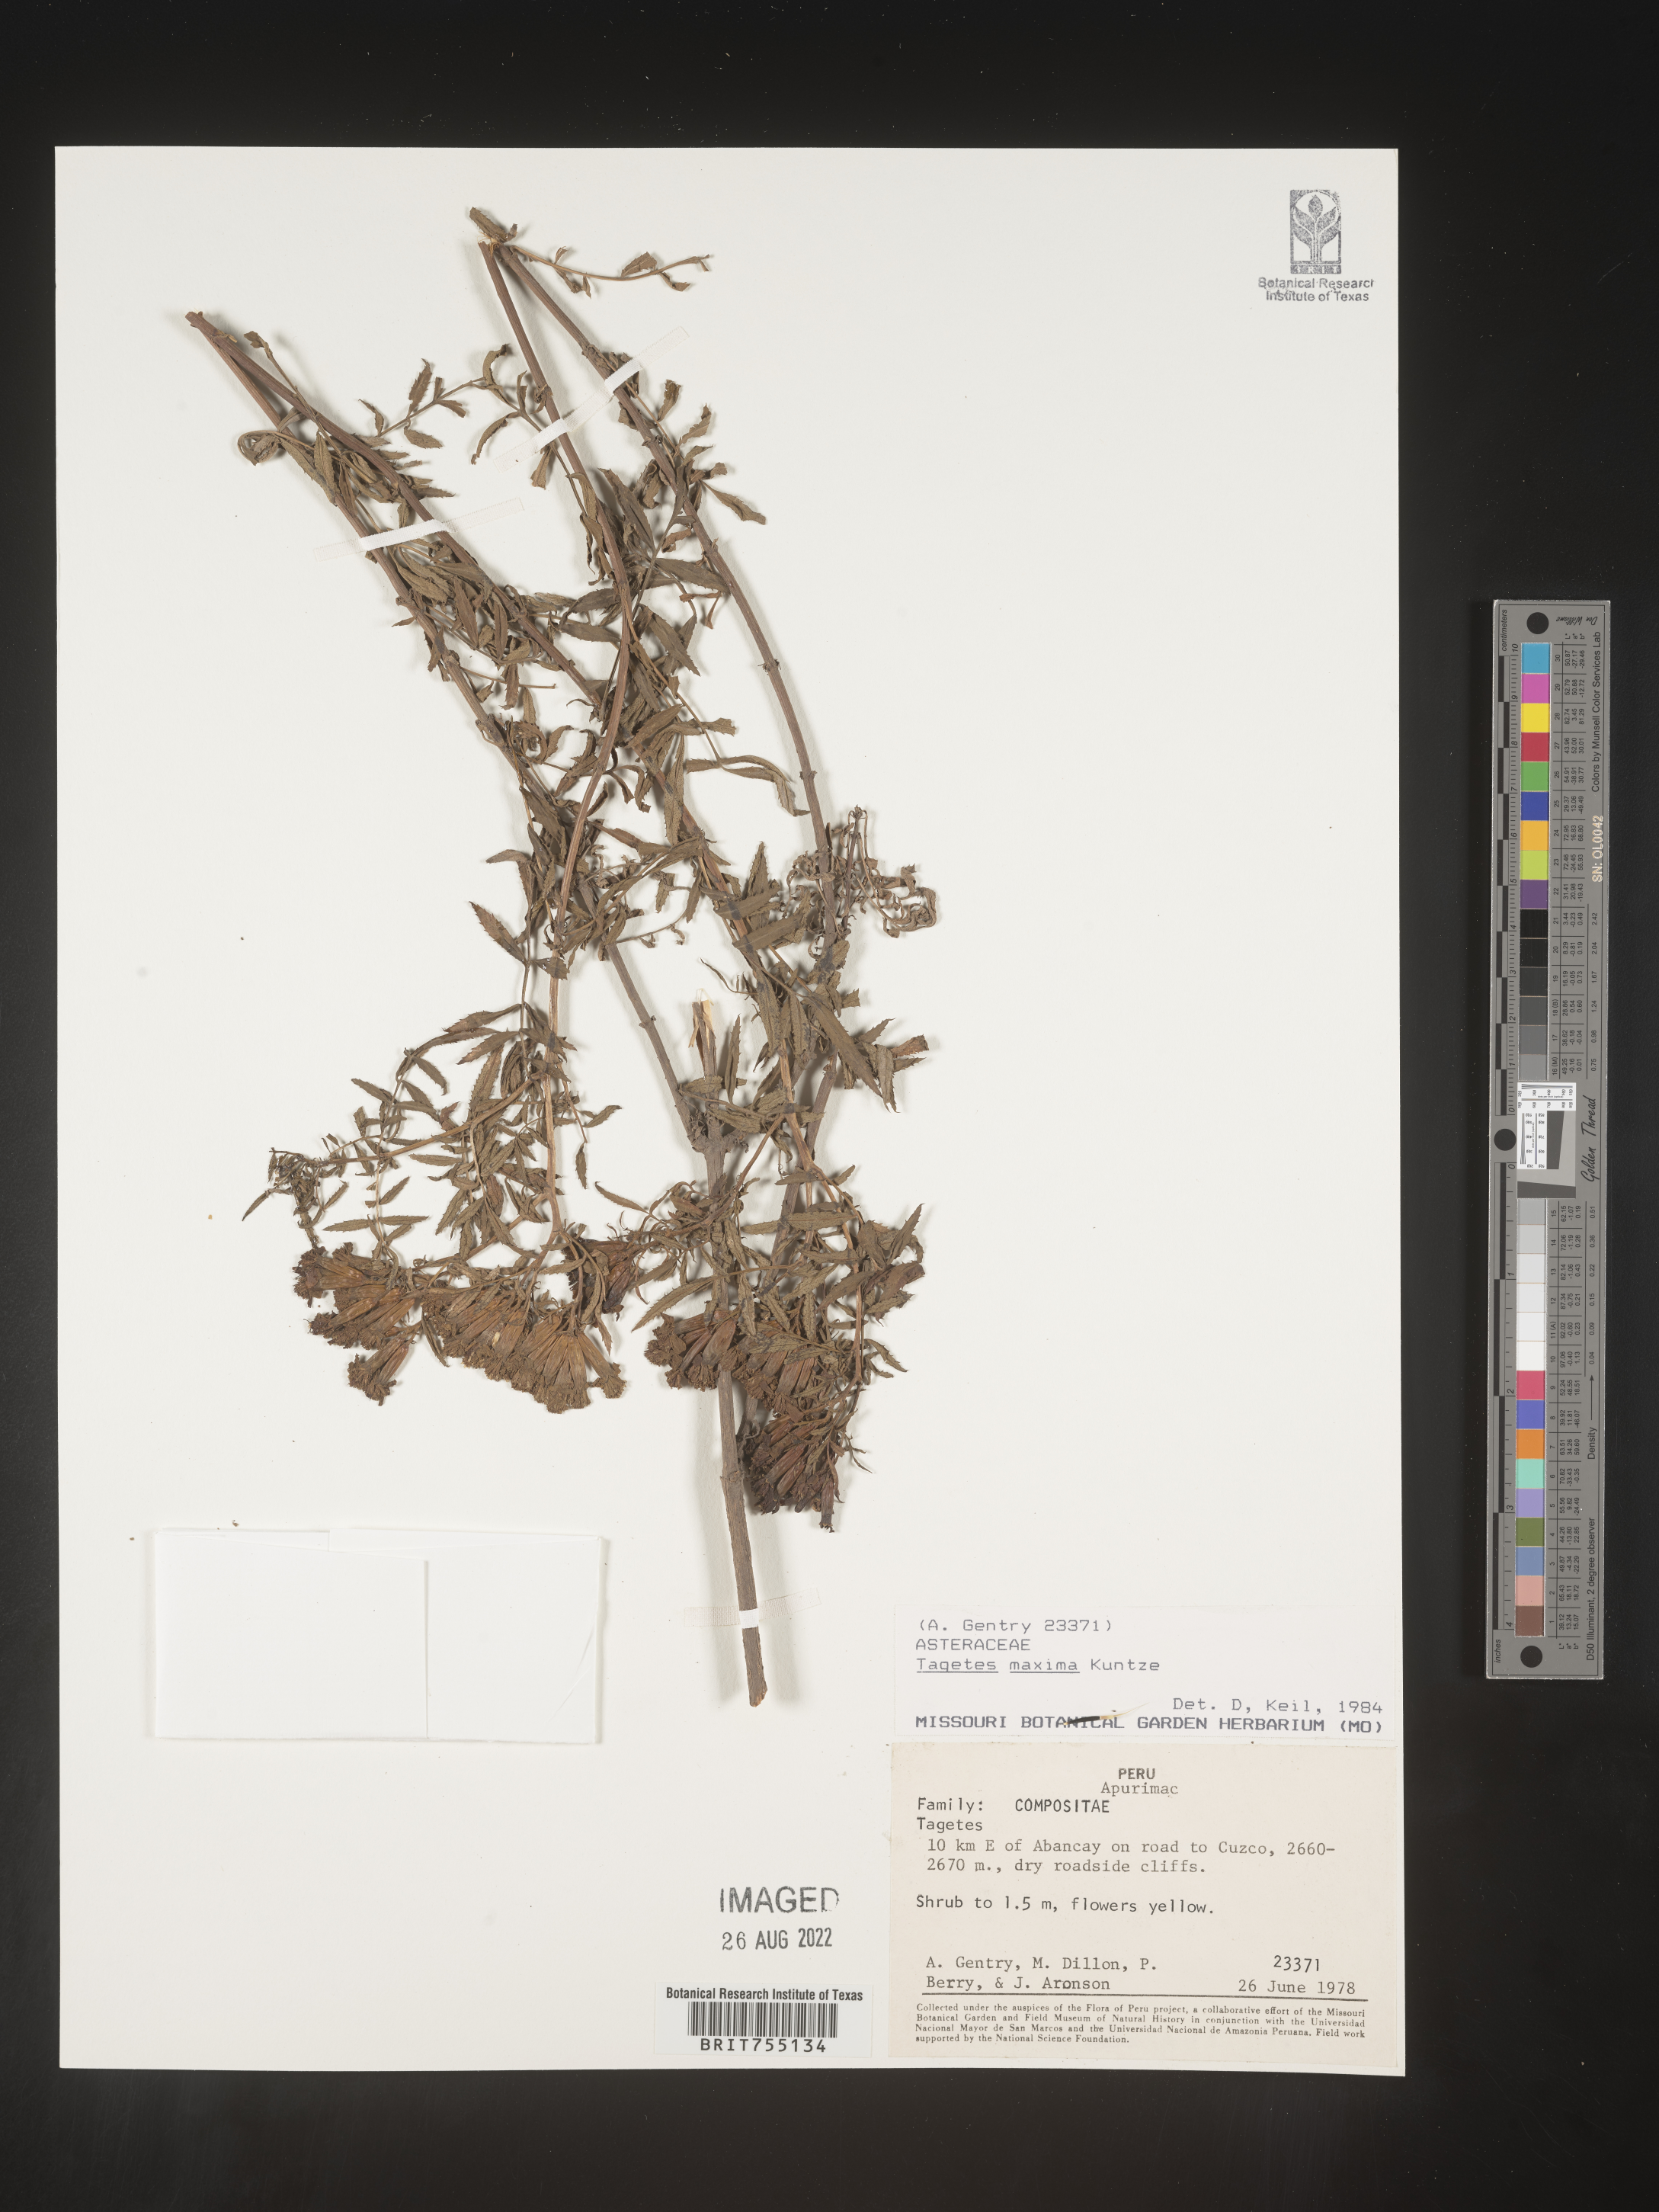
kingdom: Plantae
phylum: Tracheophyta
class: Magnoliopsida
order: Asterales
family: Asteraceae
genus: Tagetes
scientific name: Tagetes
